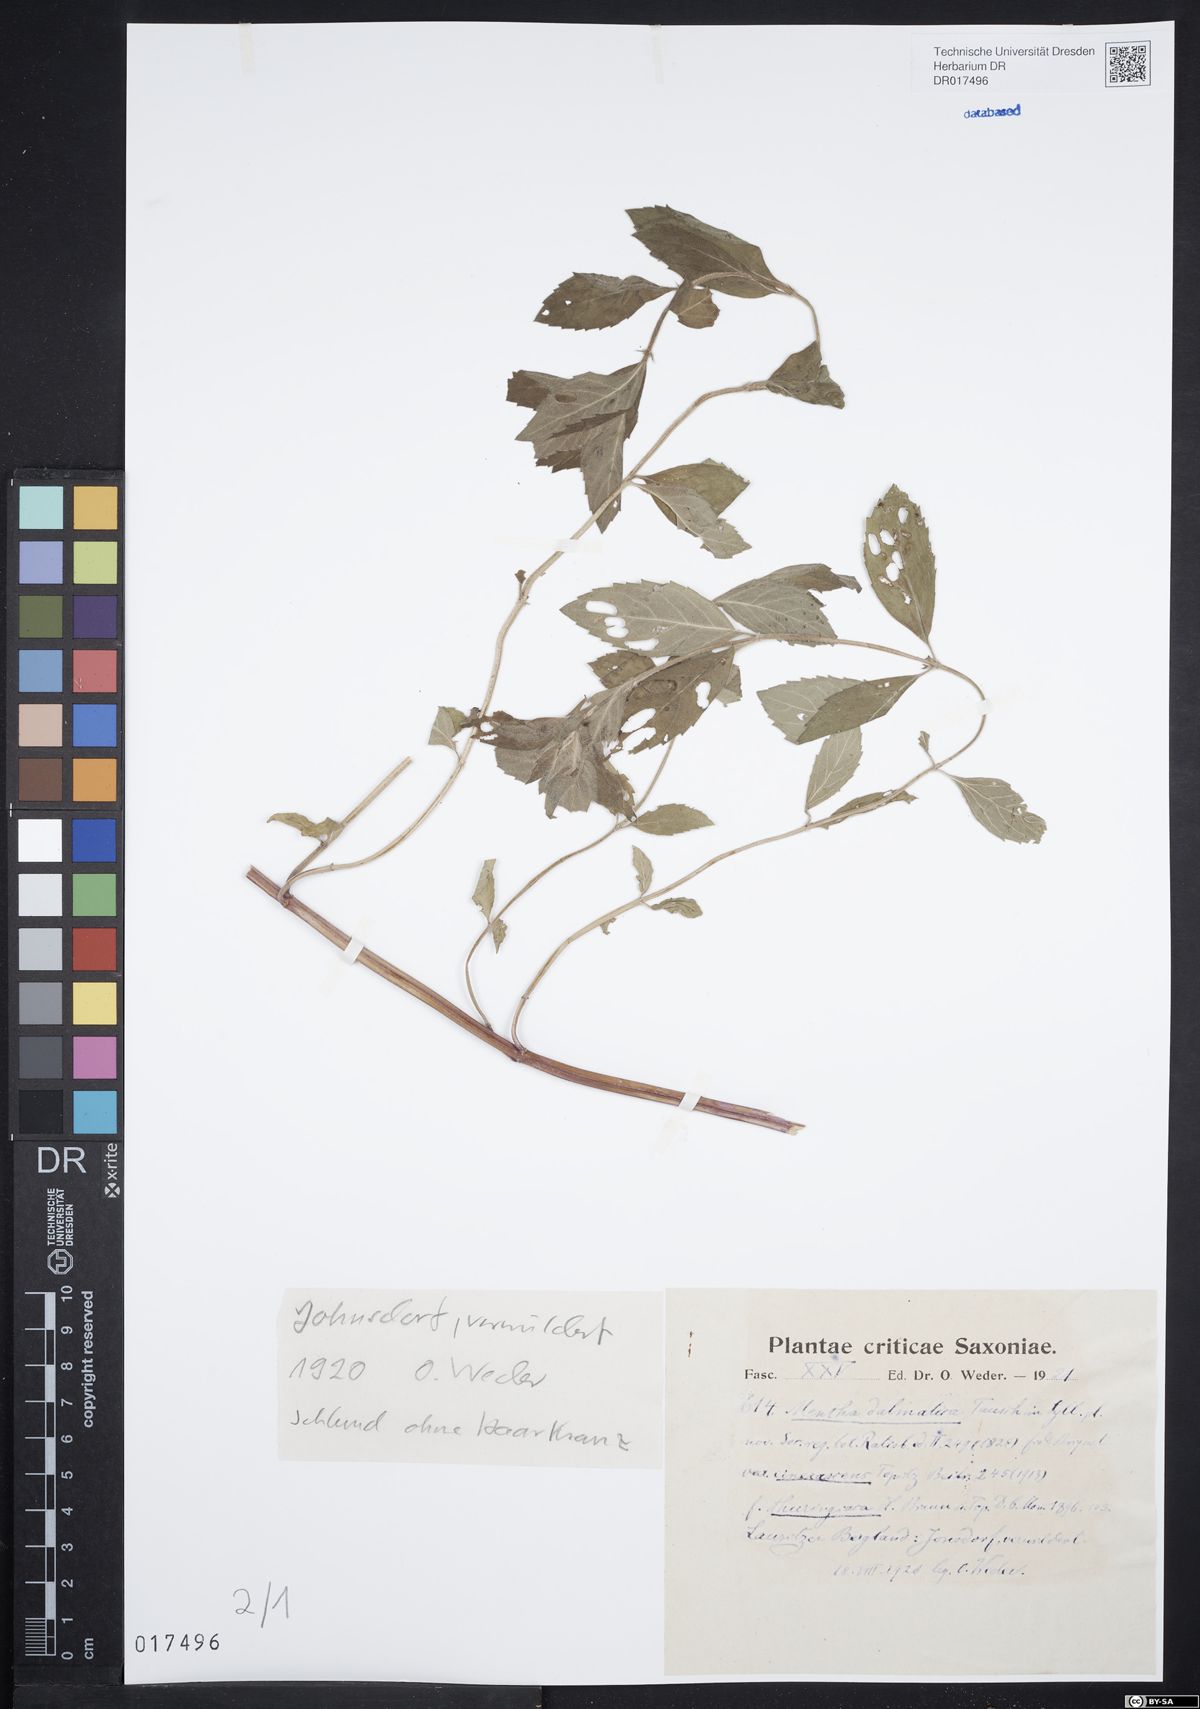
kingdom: Plantae
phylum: Tracheophyta
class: Magnoliopsida
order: Lamiales
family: Lamiaceae
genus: Mentha
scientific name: Mentha verticillata
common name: Mint
